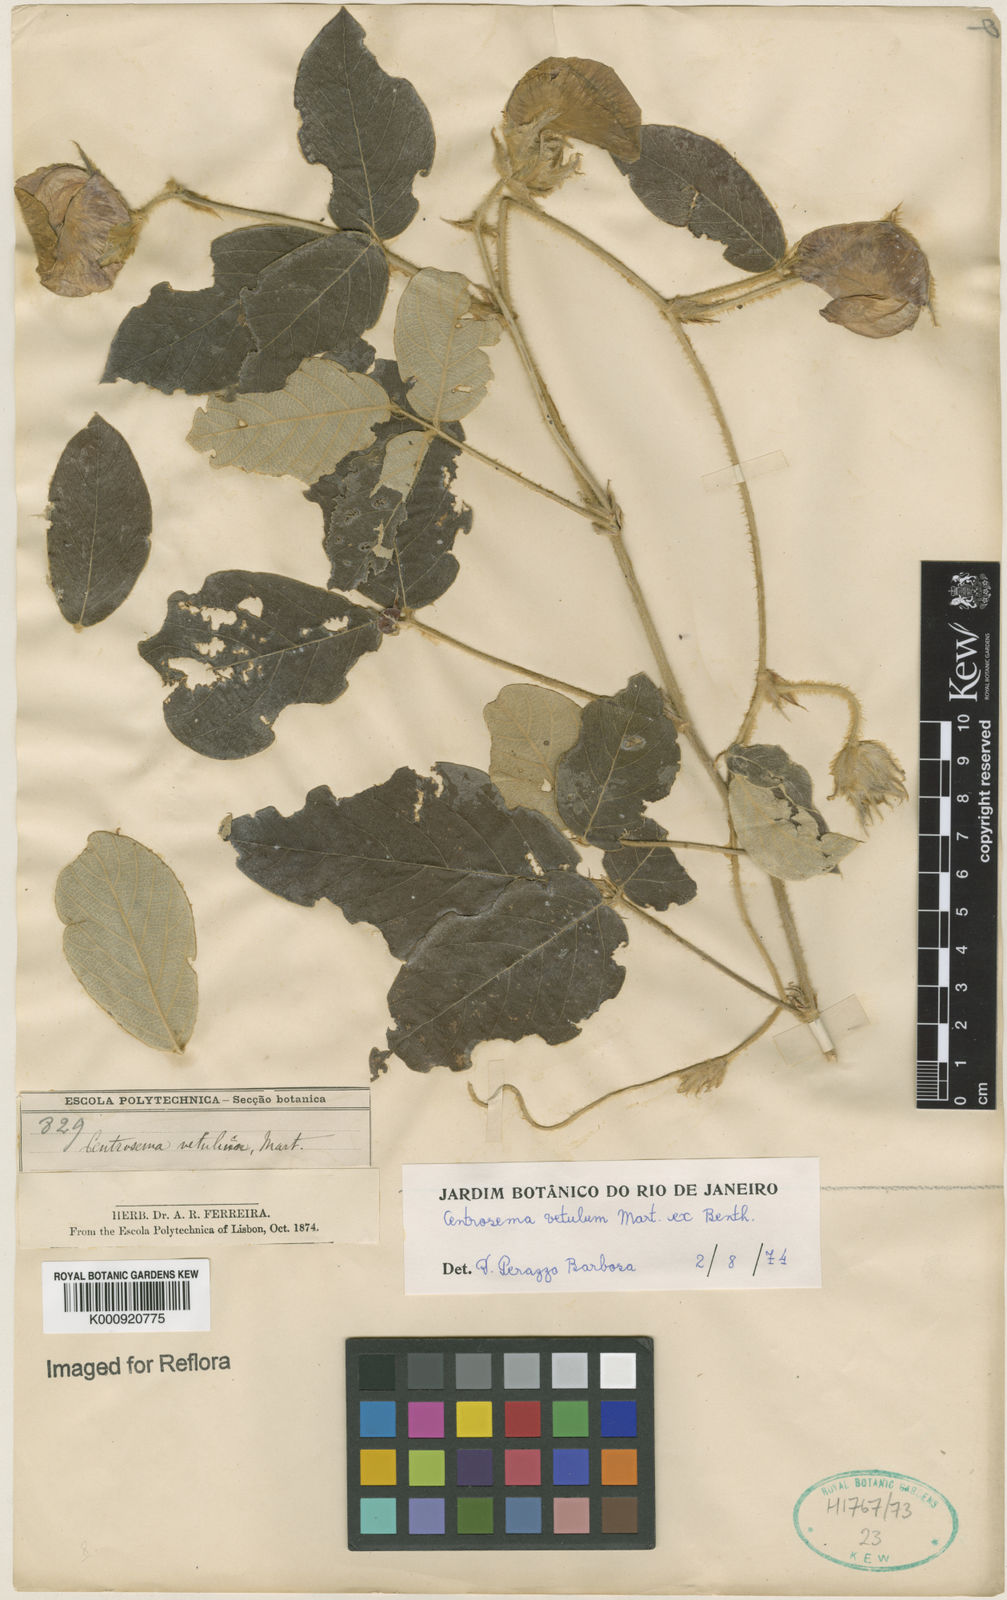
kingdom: Plantae
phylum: Tracheophyta
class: Magnoliopsida
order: Fabales
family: Fabaceae
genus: Centrosema
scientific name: Centrosema dasyanthum
